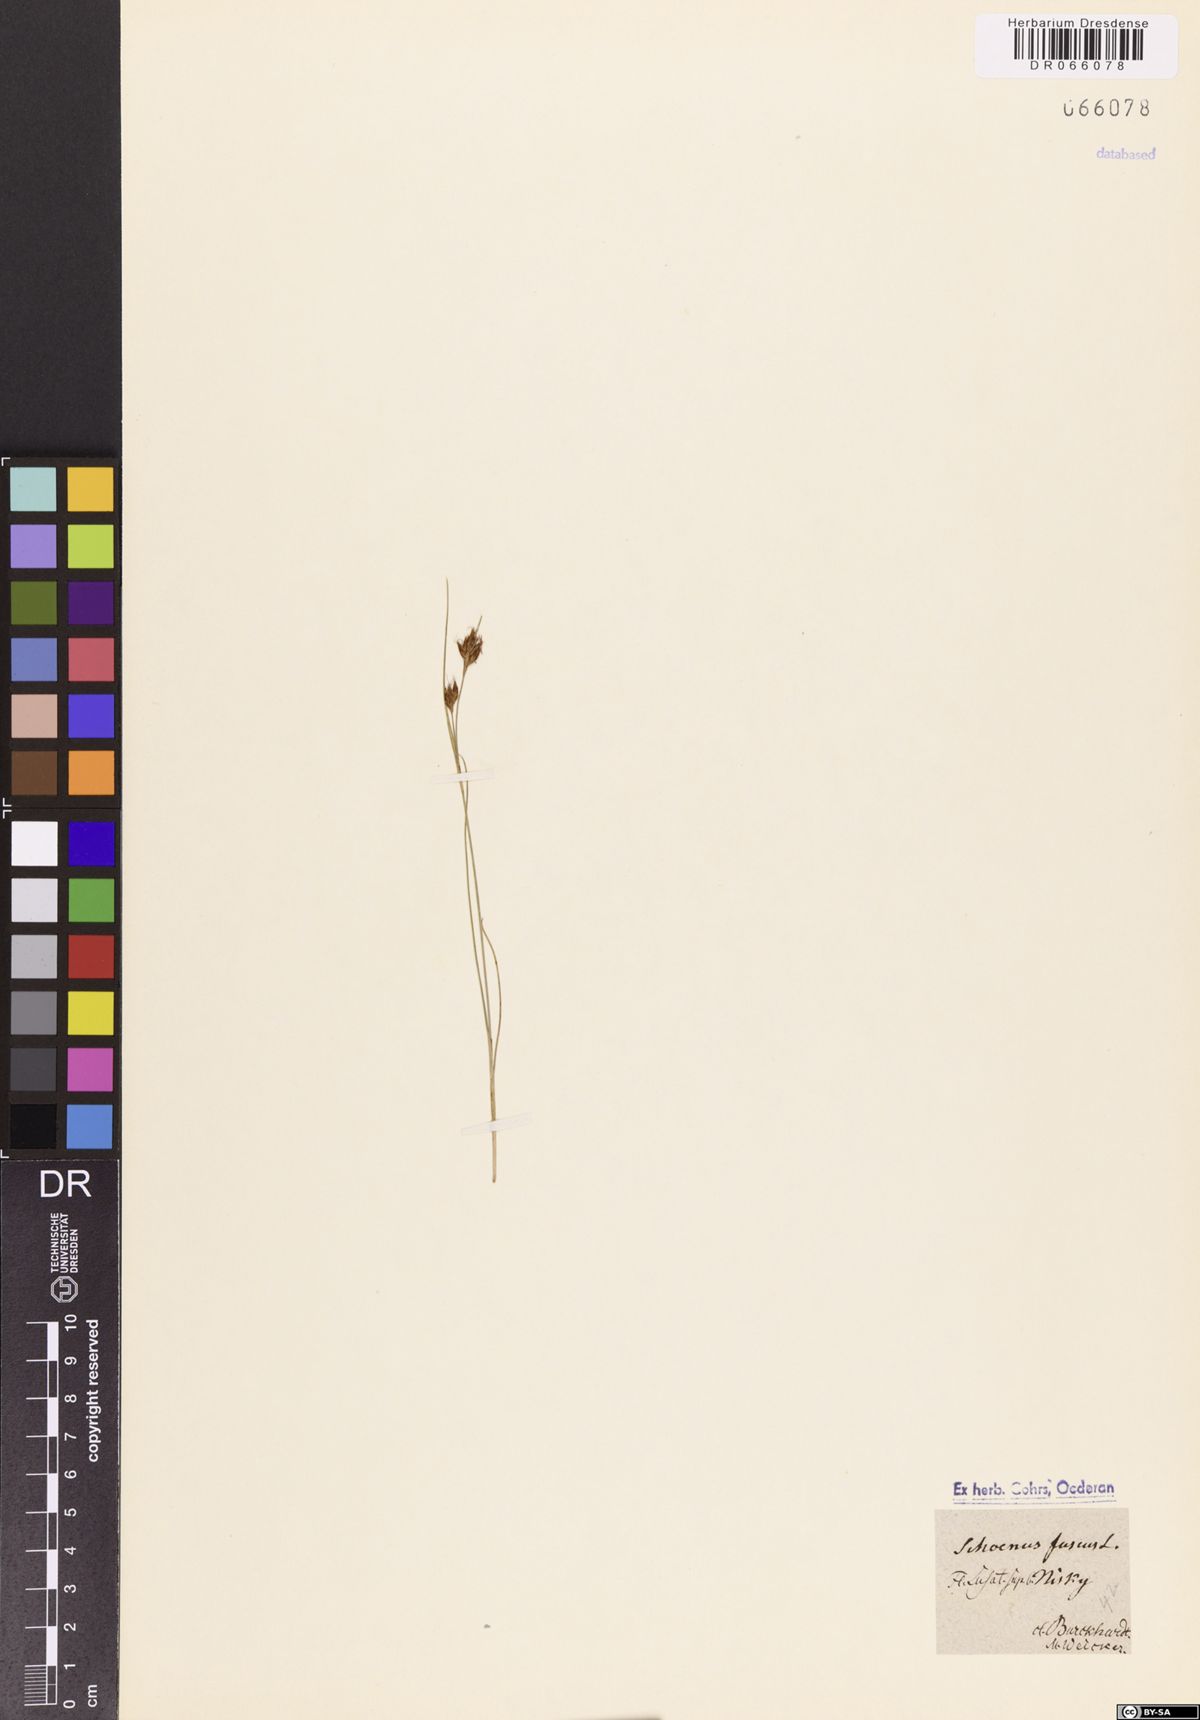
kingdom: Plantae
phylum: Tracheophyta
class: Liliopsida
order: Poales
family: Cyperaceae
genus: Rhynchospora
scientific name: Rhynchospora fusca
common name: Brown beak-sedge
